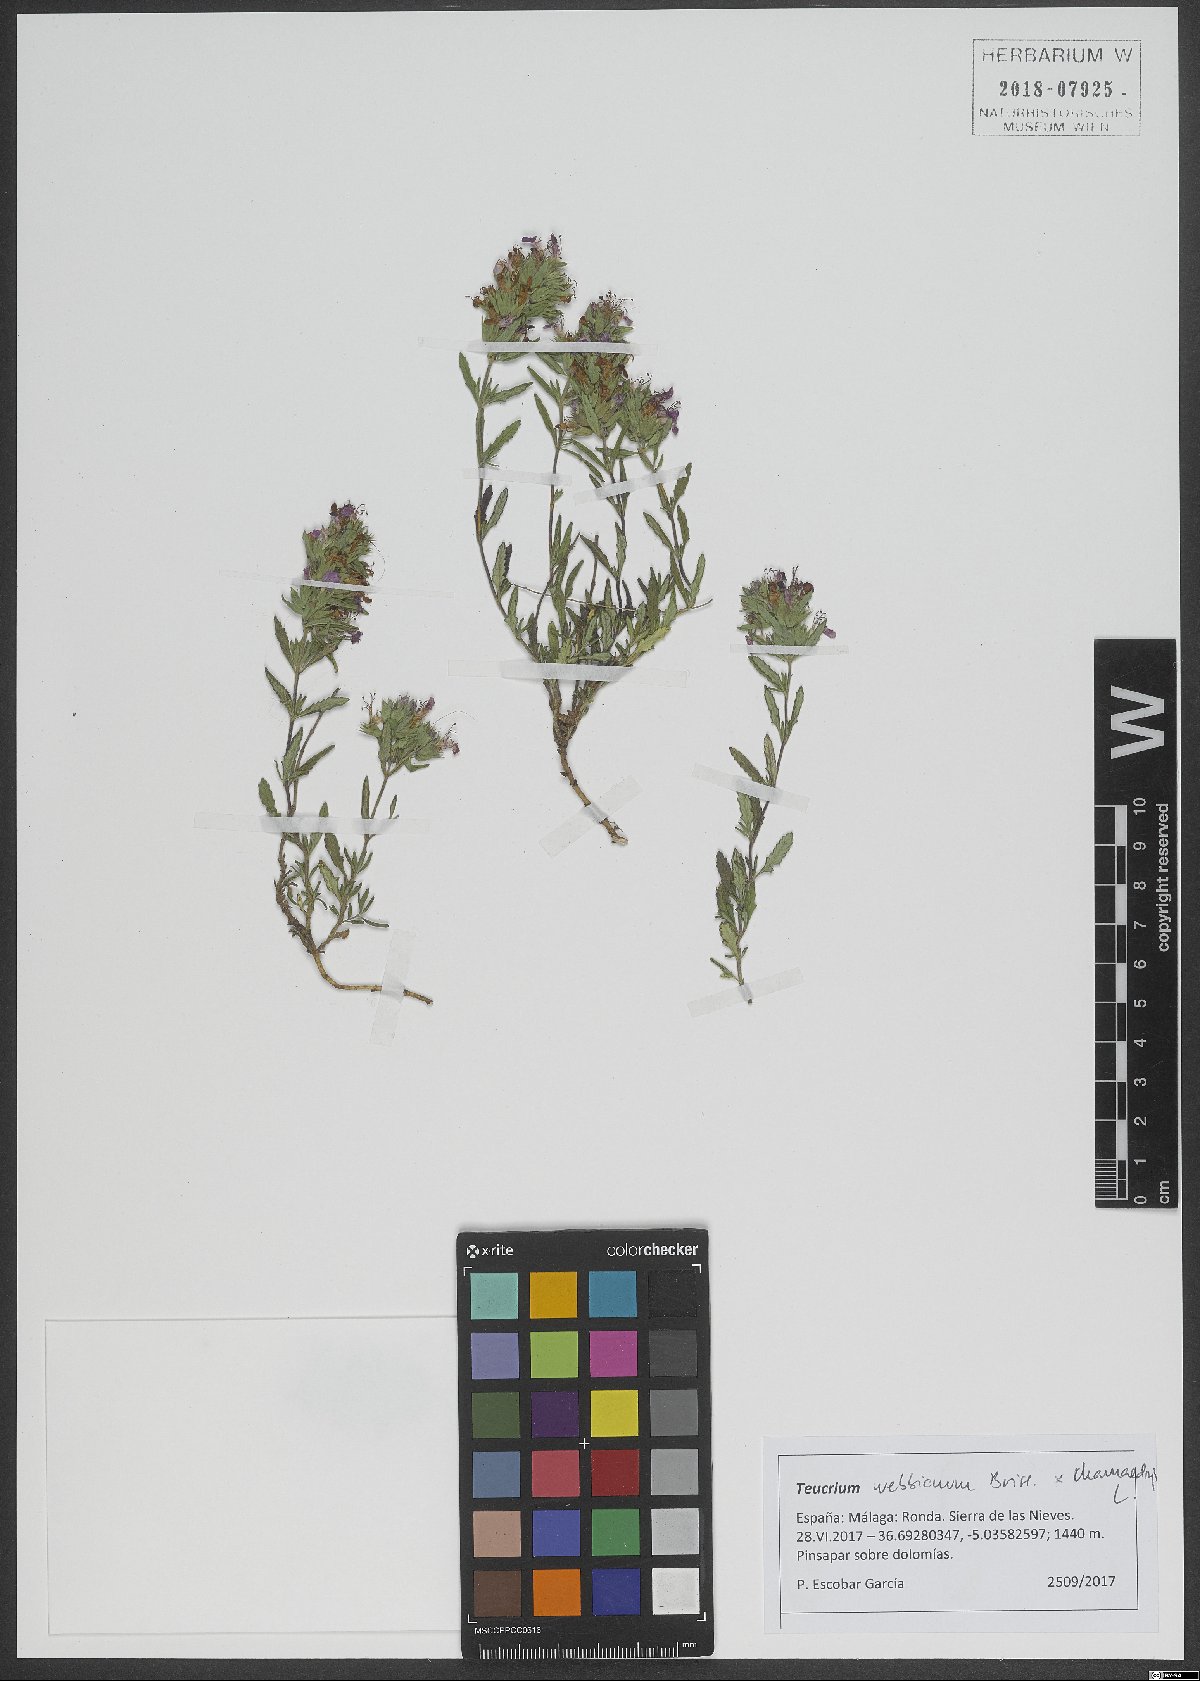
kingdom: Plantae
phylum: Tracheophyta
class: Magnoliopsida
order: Lamiales
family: Lamiaceae
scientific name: Lamiaceae
